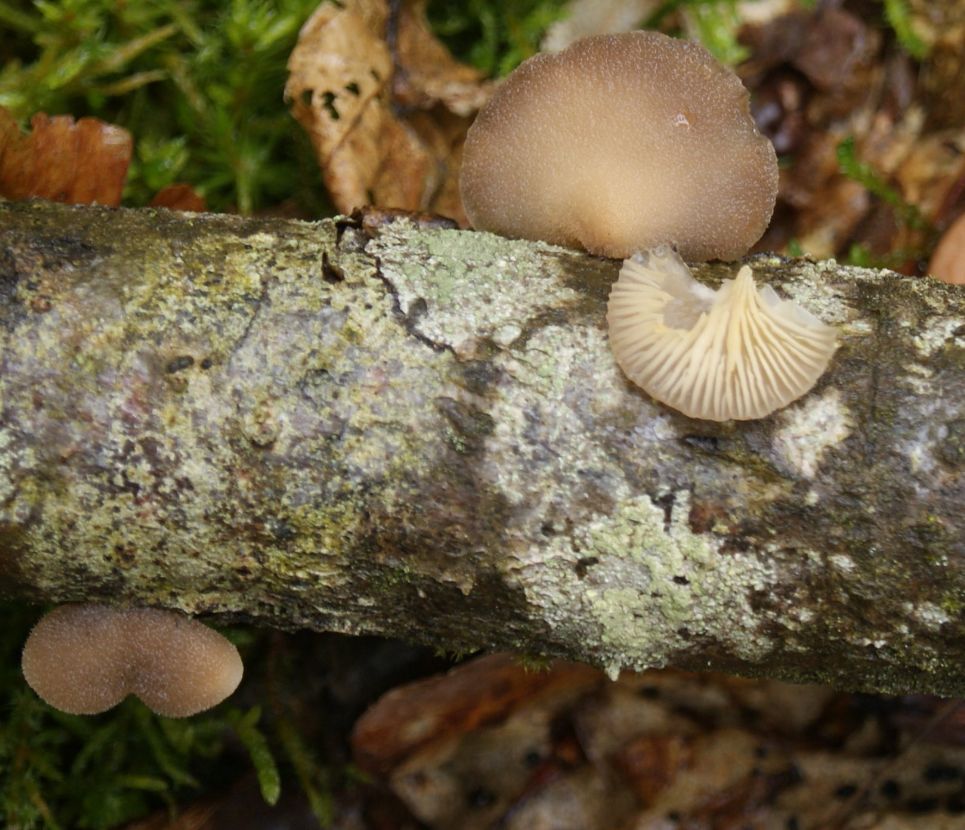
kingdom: Fungi
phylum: Basidiomycota
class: Agaricomycetes
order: Agaricales
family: Pleurotaceae
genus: Hohenbuehelia
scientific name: Hohenbuehelia horakii
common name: grå filthat
